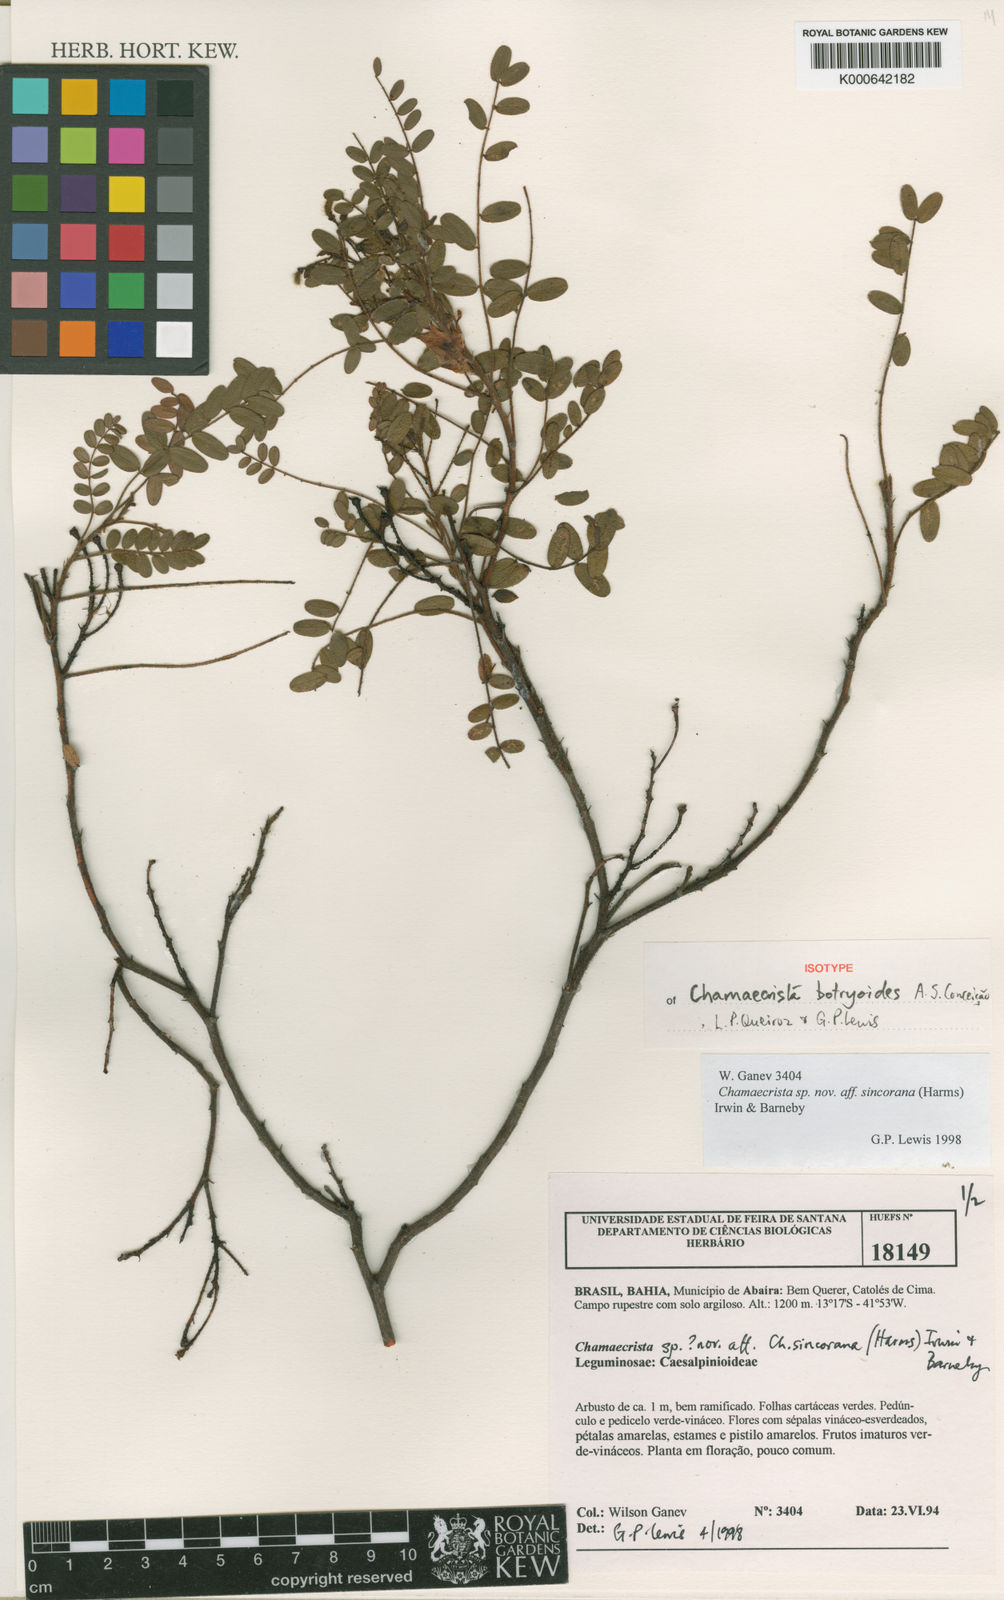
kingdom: Plantae
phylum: Tracheophyta
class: Magnoliopsida
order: Fabales
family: Fabaceae
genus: Chamaecrista
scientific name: Chamaecrista botryoides
